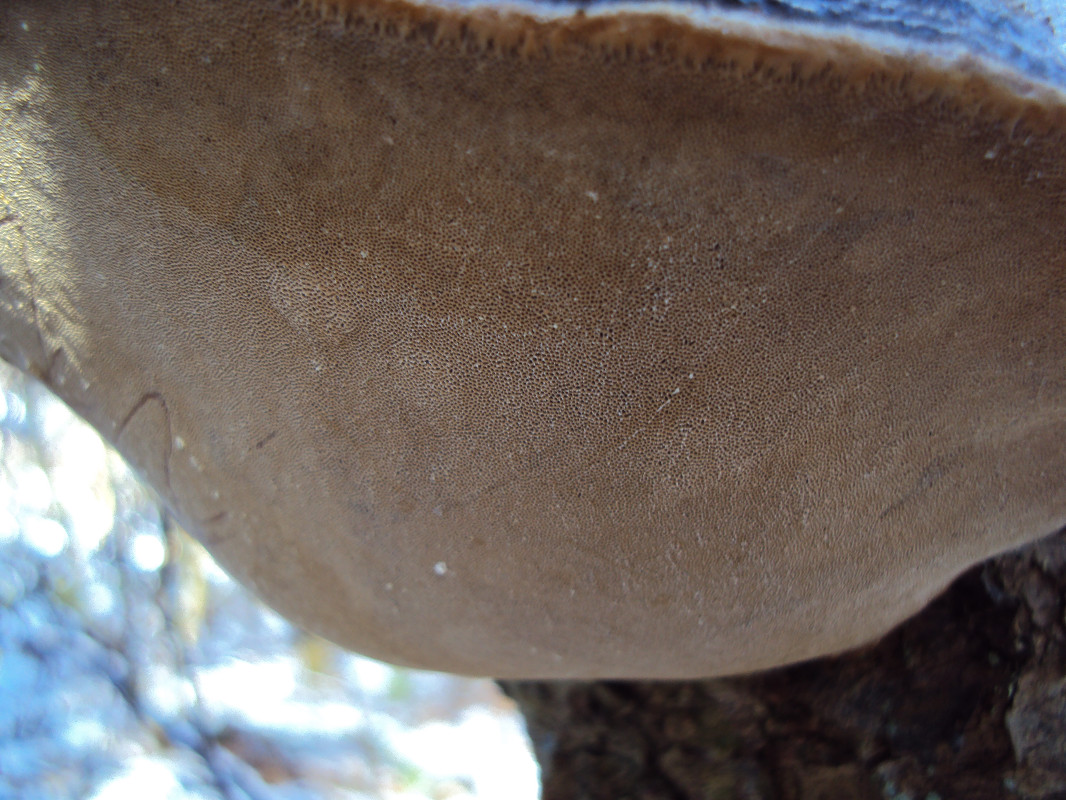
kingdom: Fungi
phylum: Basidiomycota
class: Agaricomycetes
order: Hymenochaetales
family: Hymenochaetaceae
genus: Phellinus
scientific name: Phellinus pomaceus
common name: blomme-ildporesvamp
